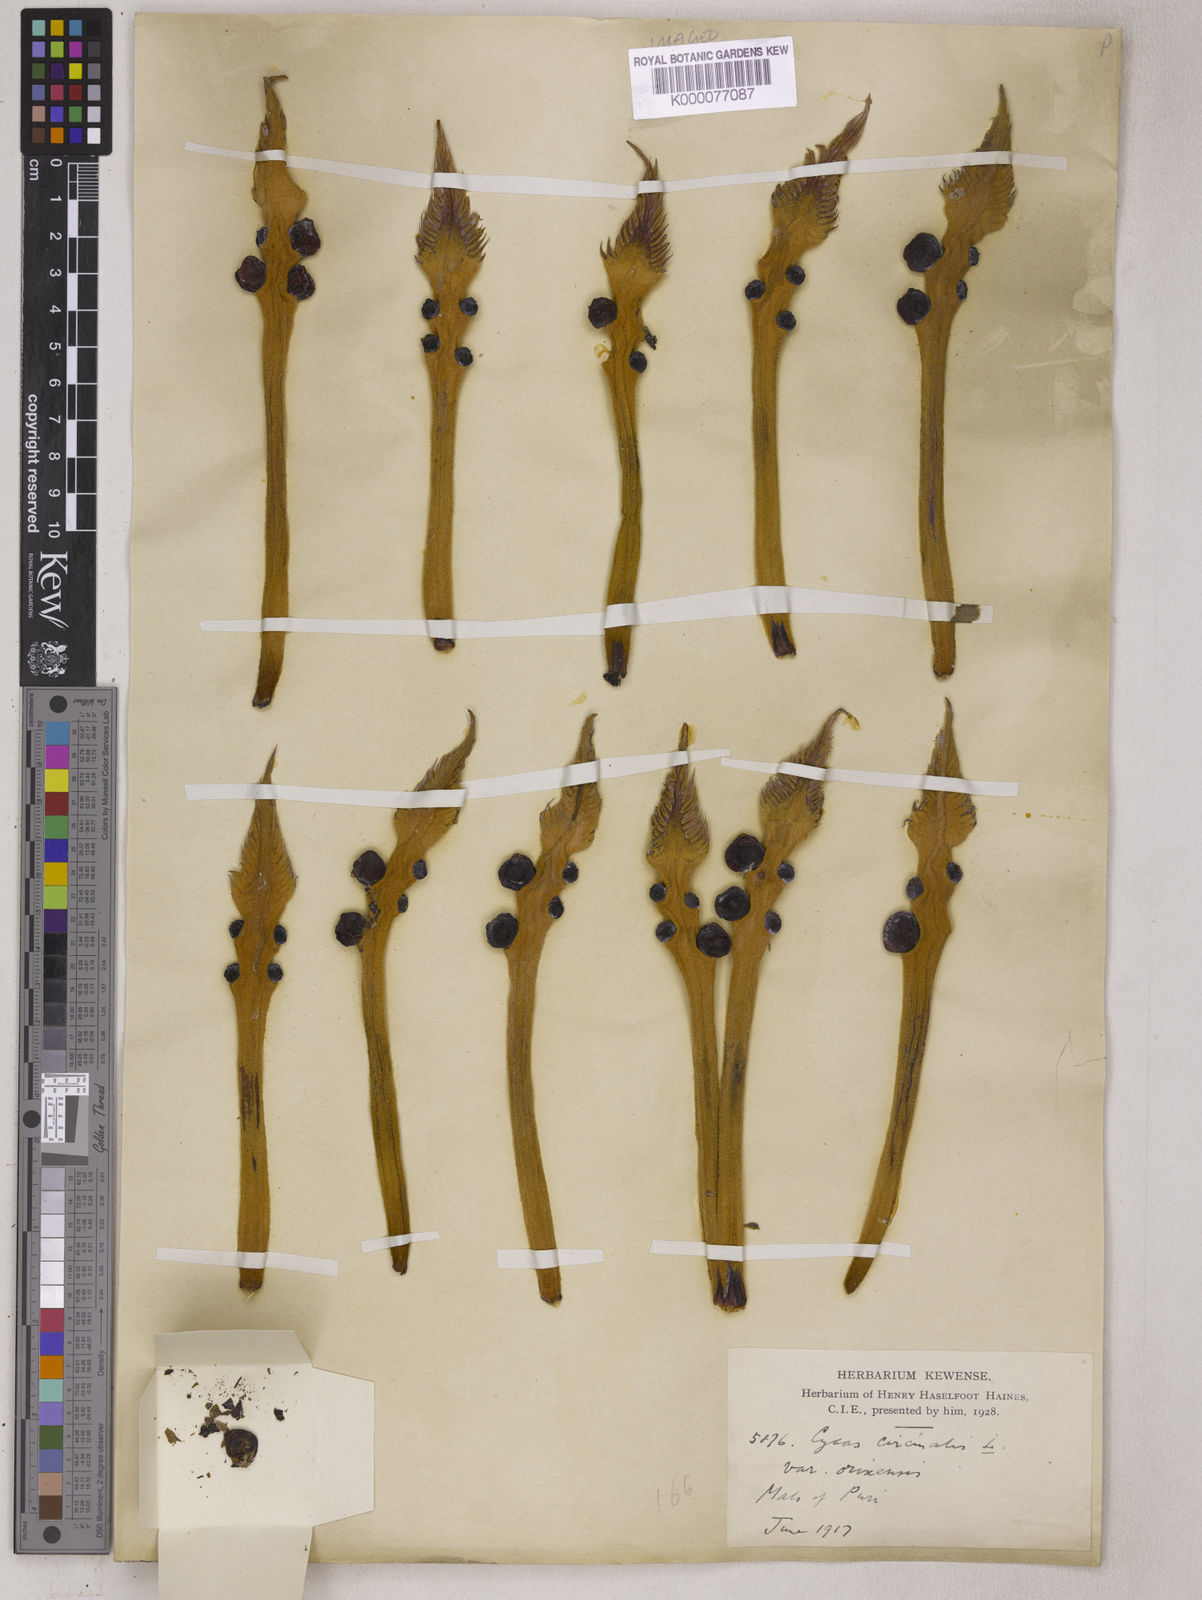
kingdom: Plantae
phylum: Tracheophyta
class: Cycadopsida
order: Cycadales
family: Cycadaceae
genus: Cycas
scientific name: Cycas circinalis
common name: Queen sago
